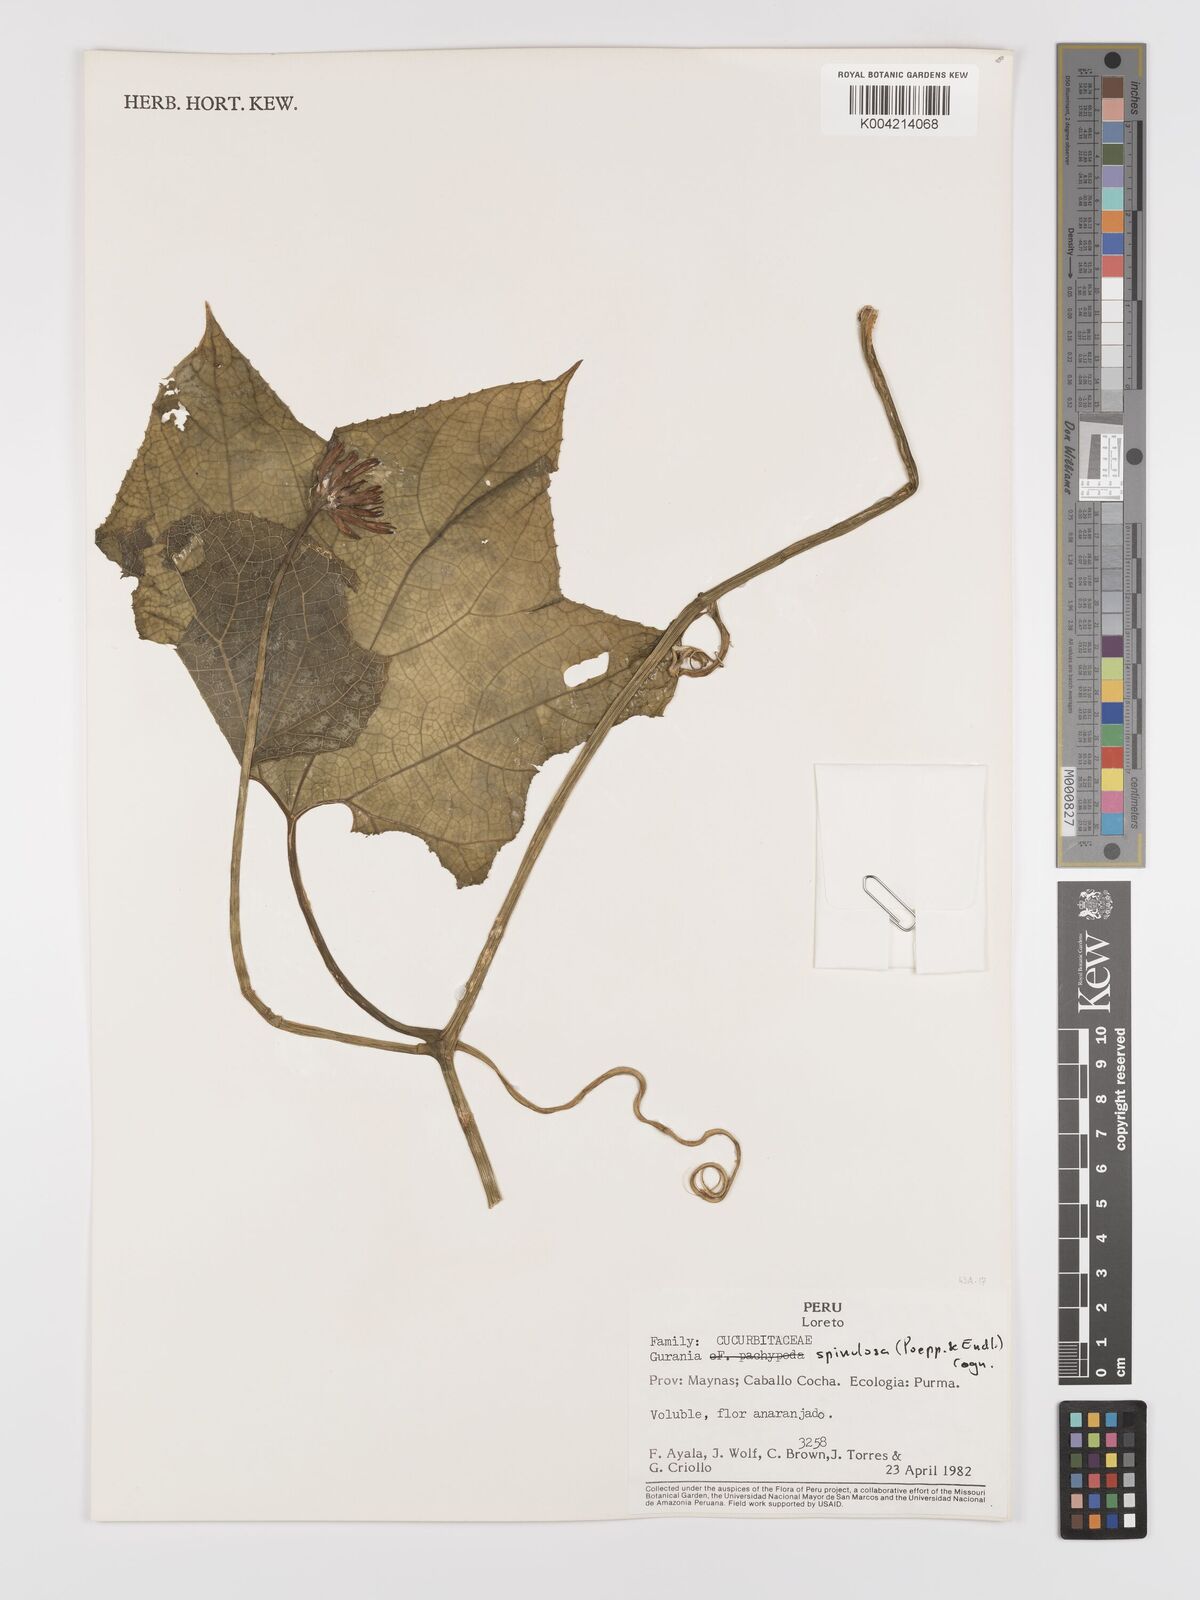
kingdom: Plantae
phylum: Tracheophyta
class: Magnoliopsida
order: Cucurbitales
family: Cucurbitaceae
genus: Gurania
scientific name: Gurania lobata
